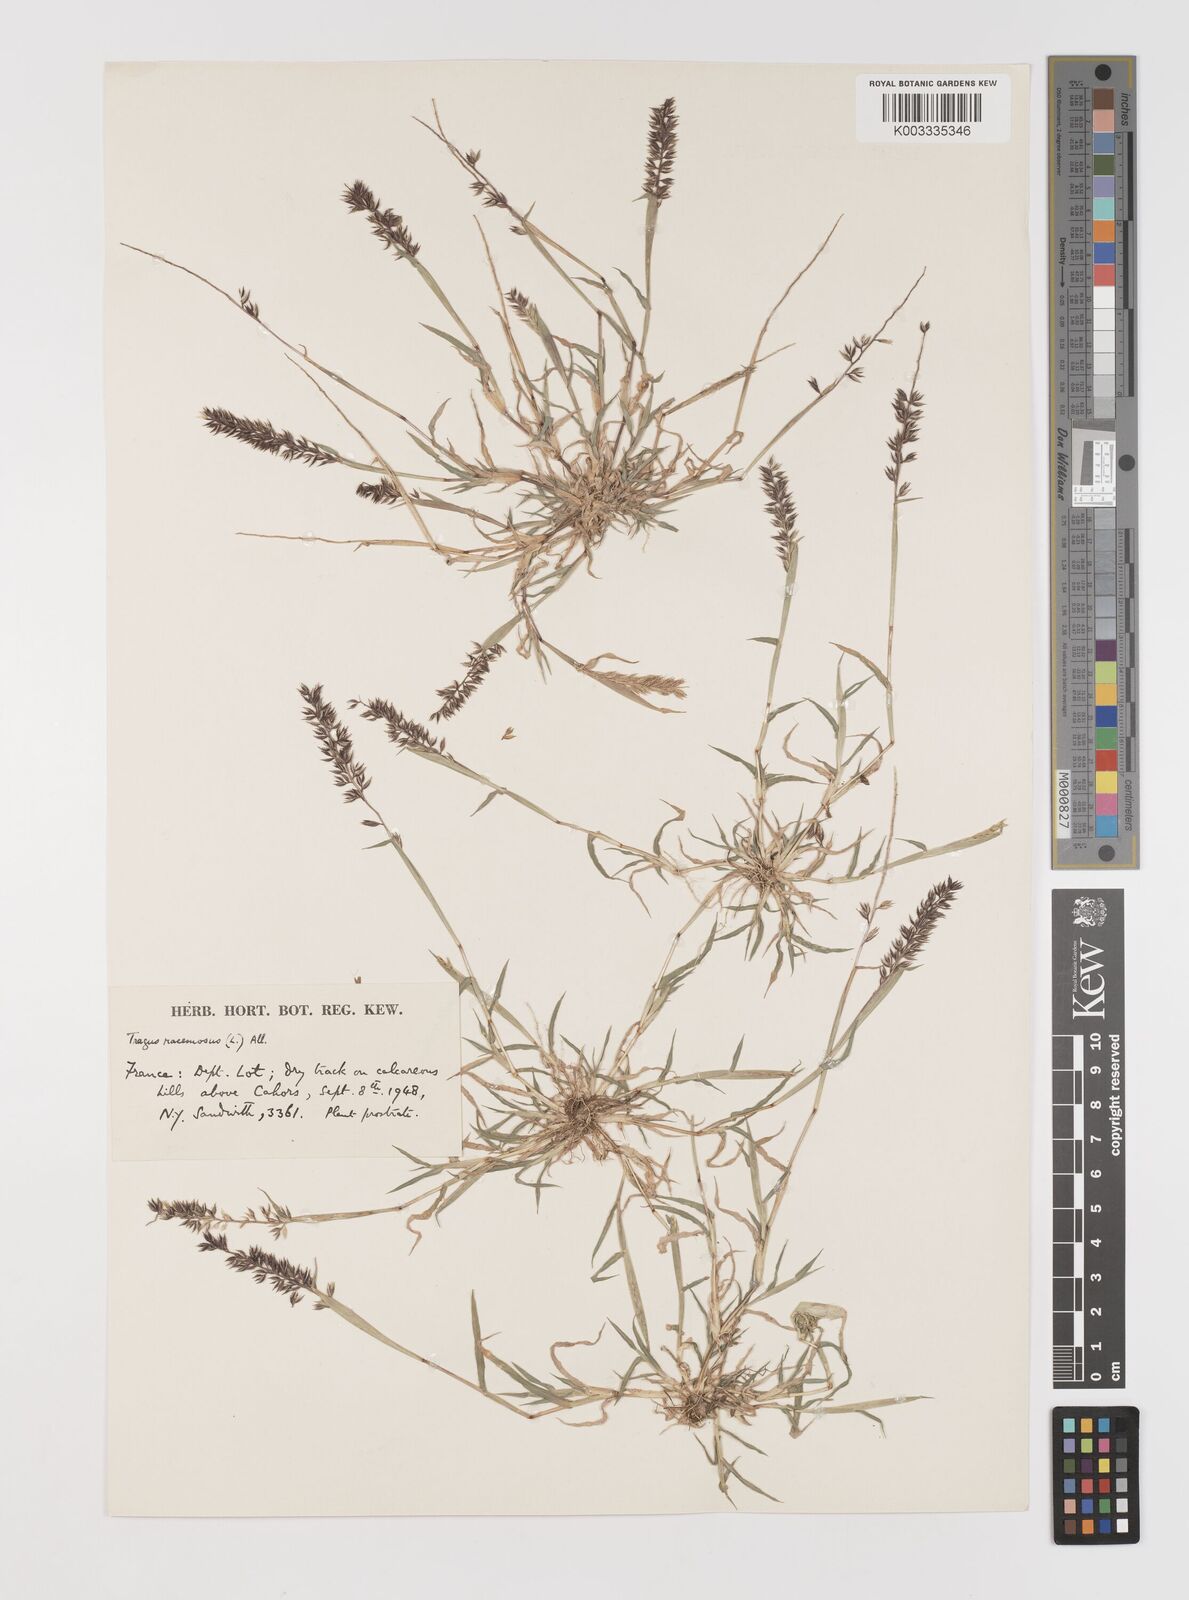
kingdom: Plantae
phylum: Tracheophyta
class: Liliopsida
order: Poales
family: Poaceae
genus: Tragus
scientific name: Tragus racemosus
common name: European bur-grass
